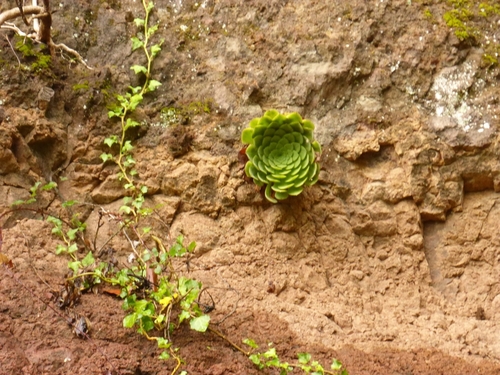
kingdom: Plantae
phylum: Tracheophyta
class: Magnoliopsida
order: Saxifragales
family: Crassulaceae
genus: Aeonium
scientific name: Aeonium glandulosum
